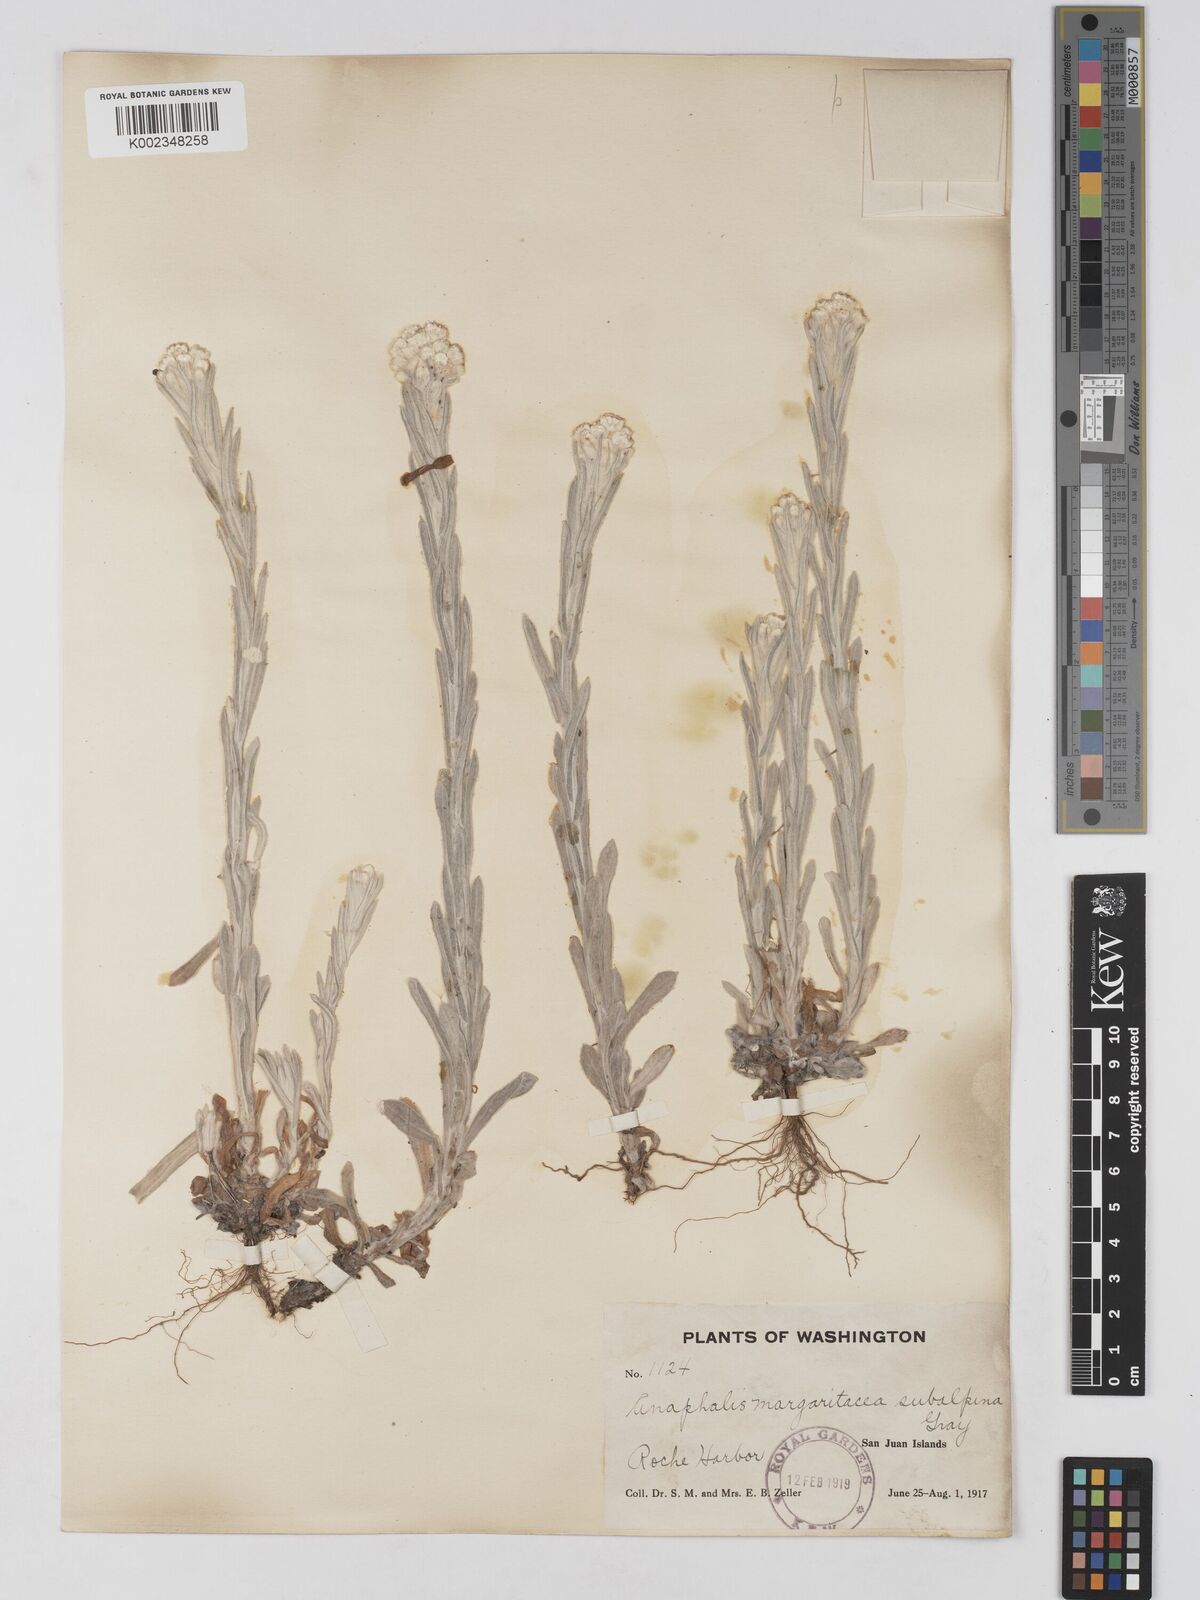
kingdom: Plantae
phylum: Tracheophyta
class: Magnoliopsida
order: Asterales
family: Asteraceae
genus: Anaphalis
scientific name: Anaphalis margaritacea
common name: Pearly everlasting
